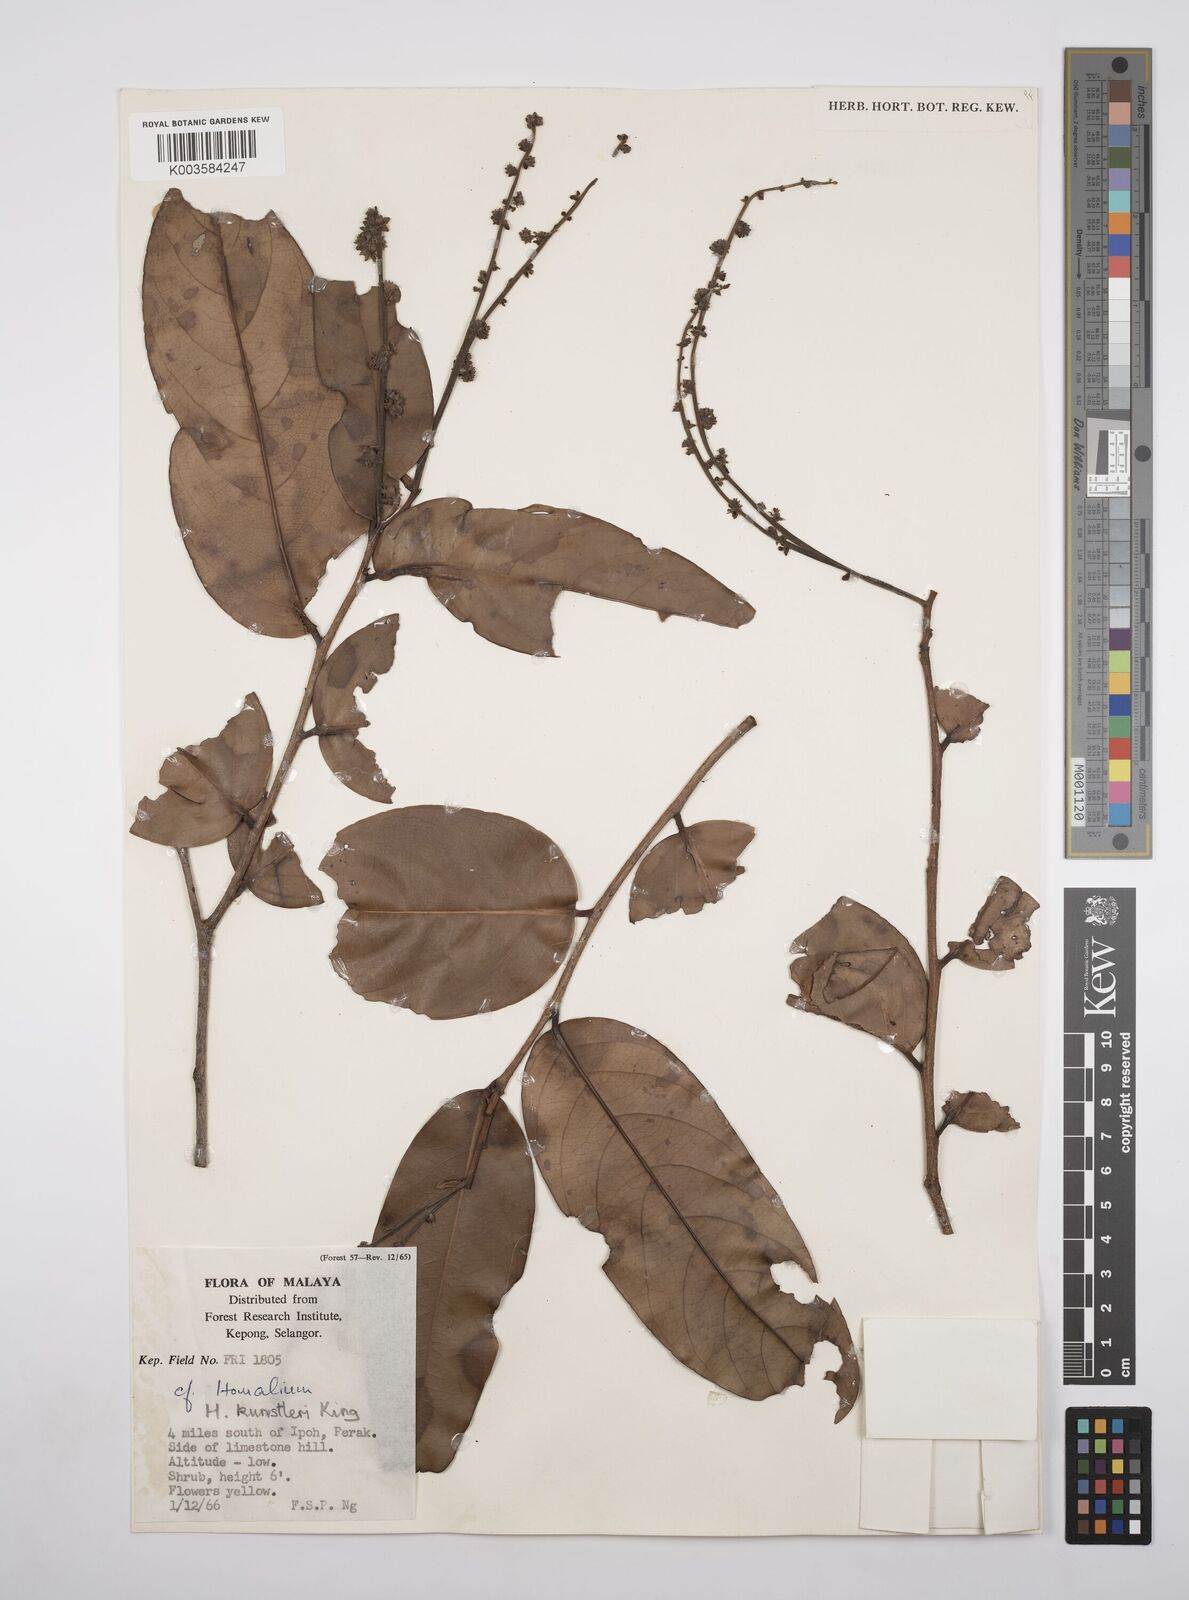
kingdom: Plantae
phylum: Tracheophyta
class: Magnoliopsida
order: Malpighiales
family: Salicaceae
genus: Homalium
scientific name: Homalium kunstleri
